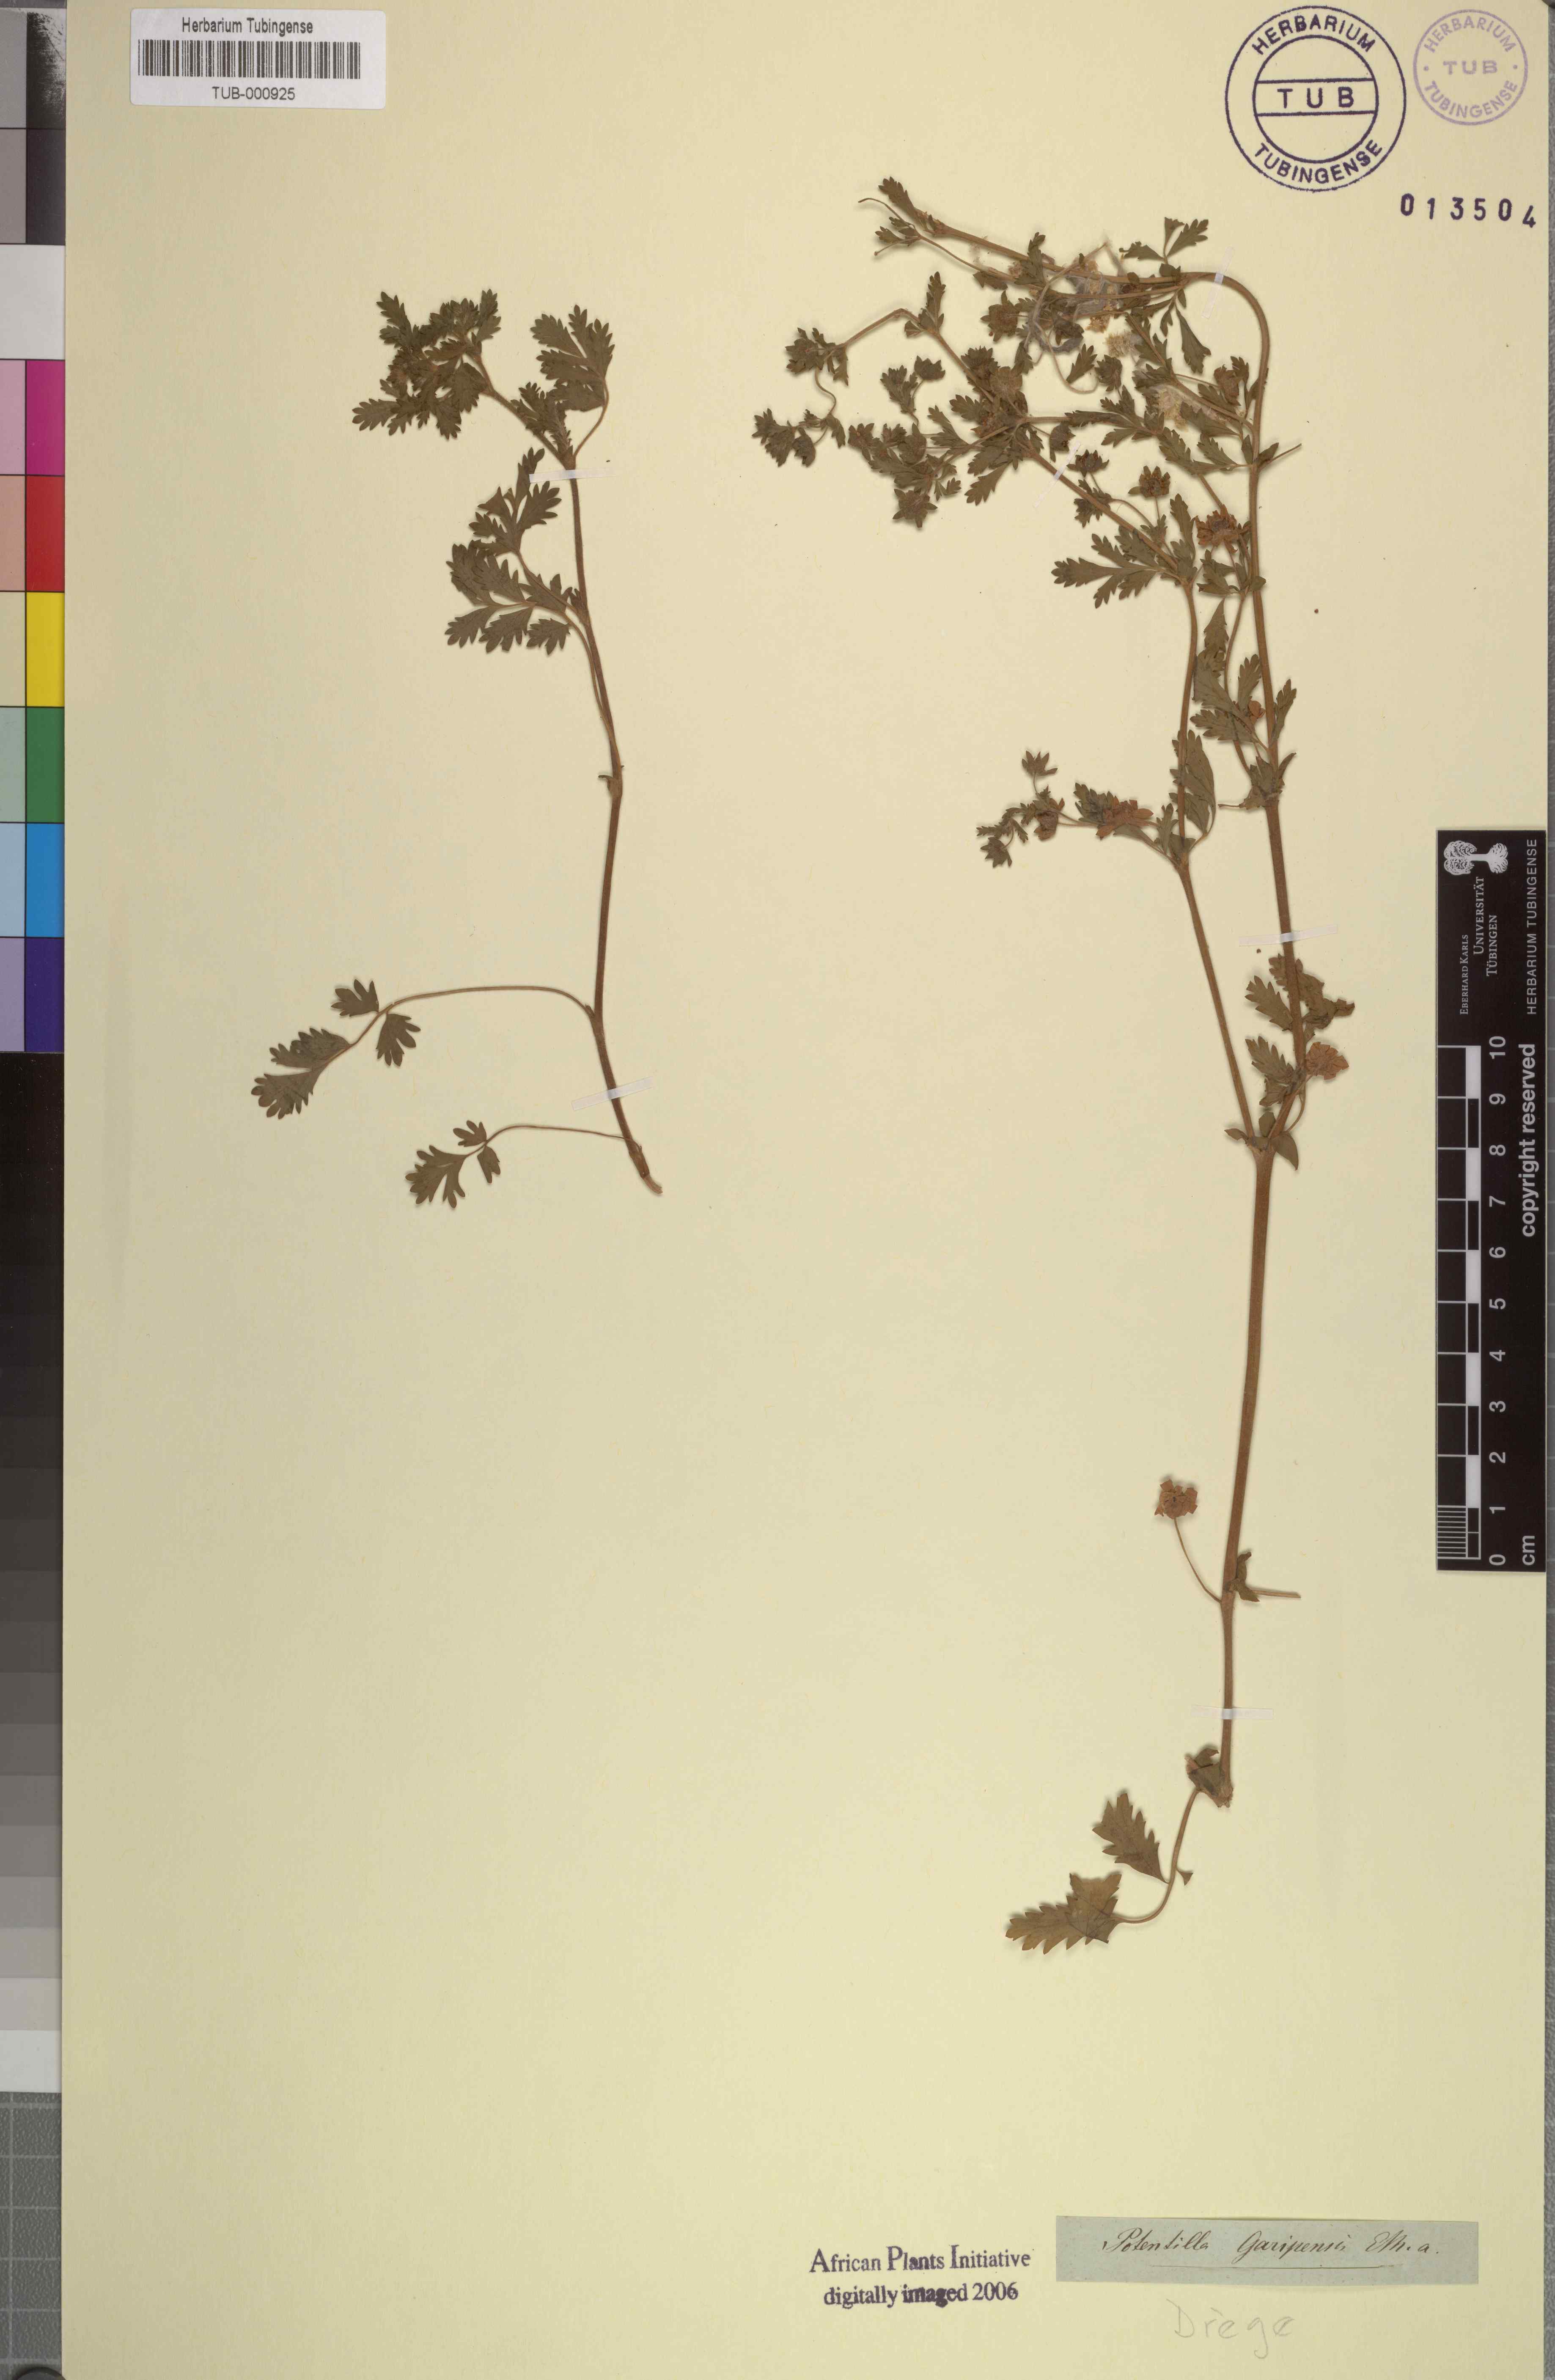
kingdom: Plantae
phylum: Tracheophyta
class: Magnoliopsida
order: Rosales
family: Rosaceae
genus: Potentilla
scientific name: Potentilla supina
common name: Prostrate cinquefoil
